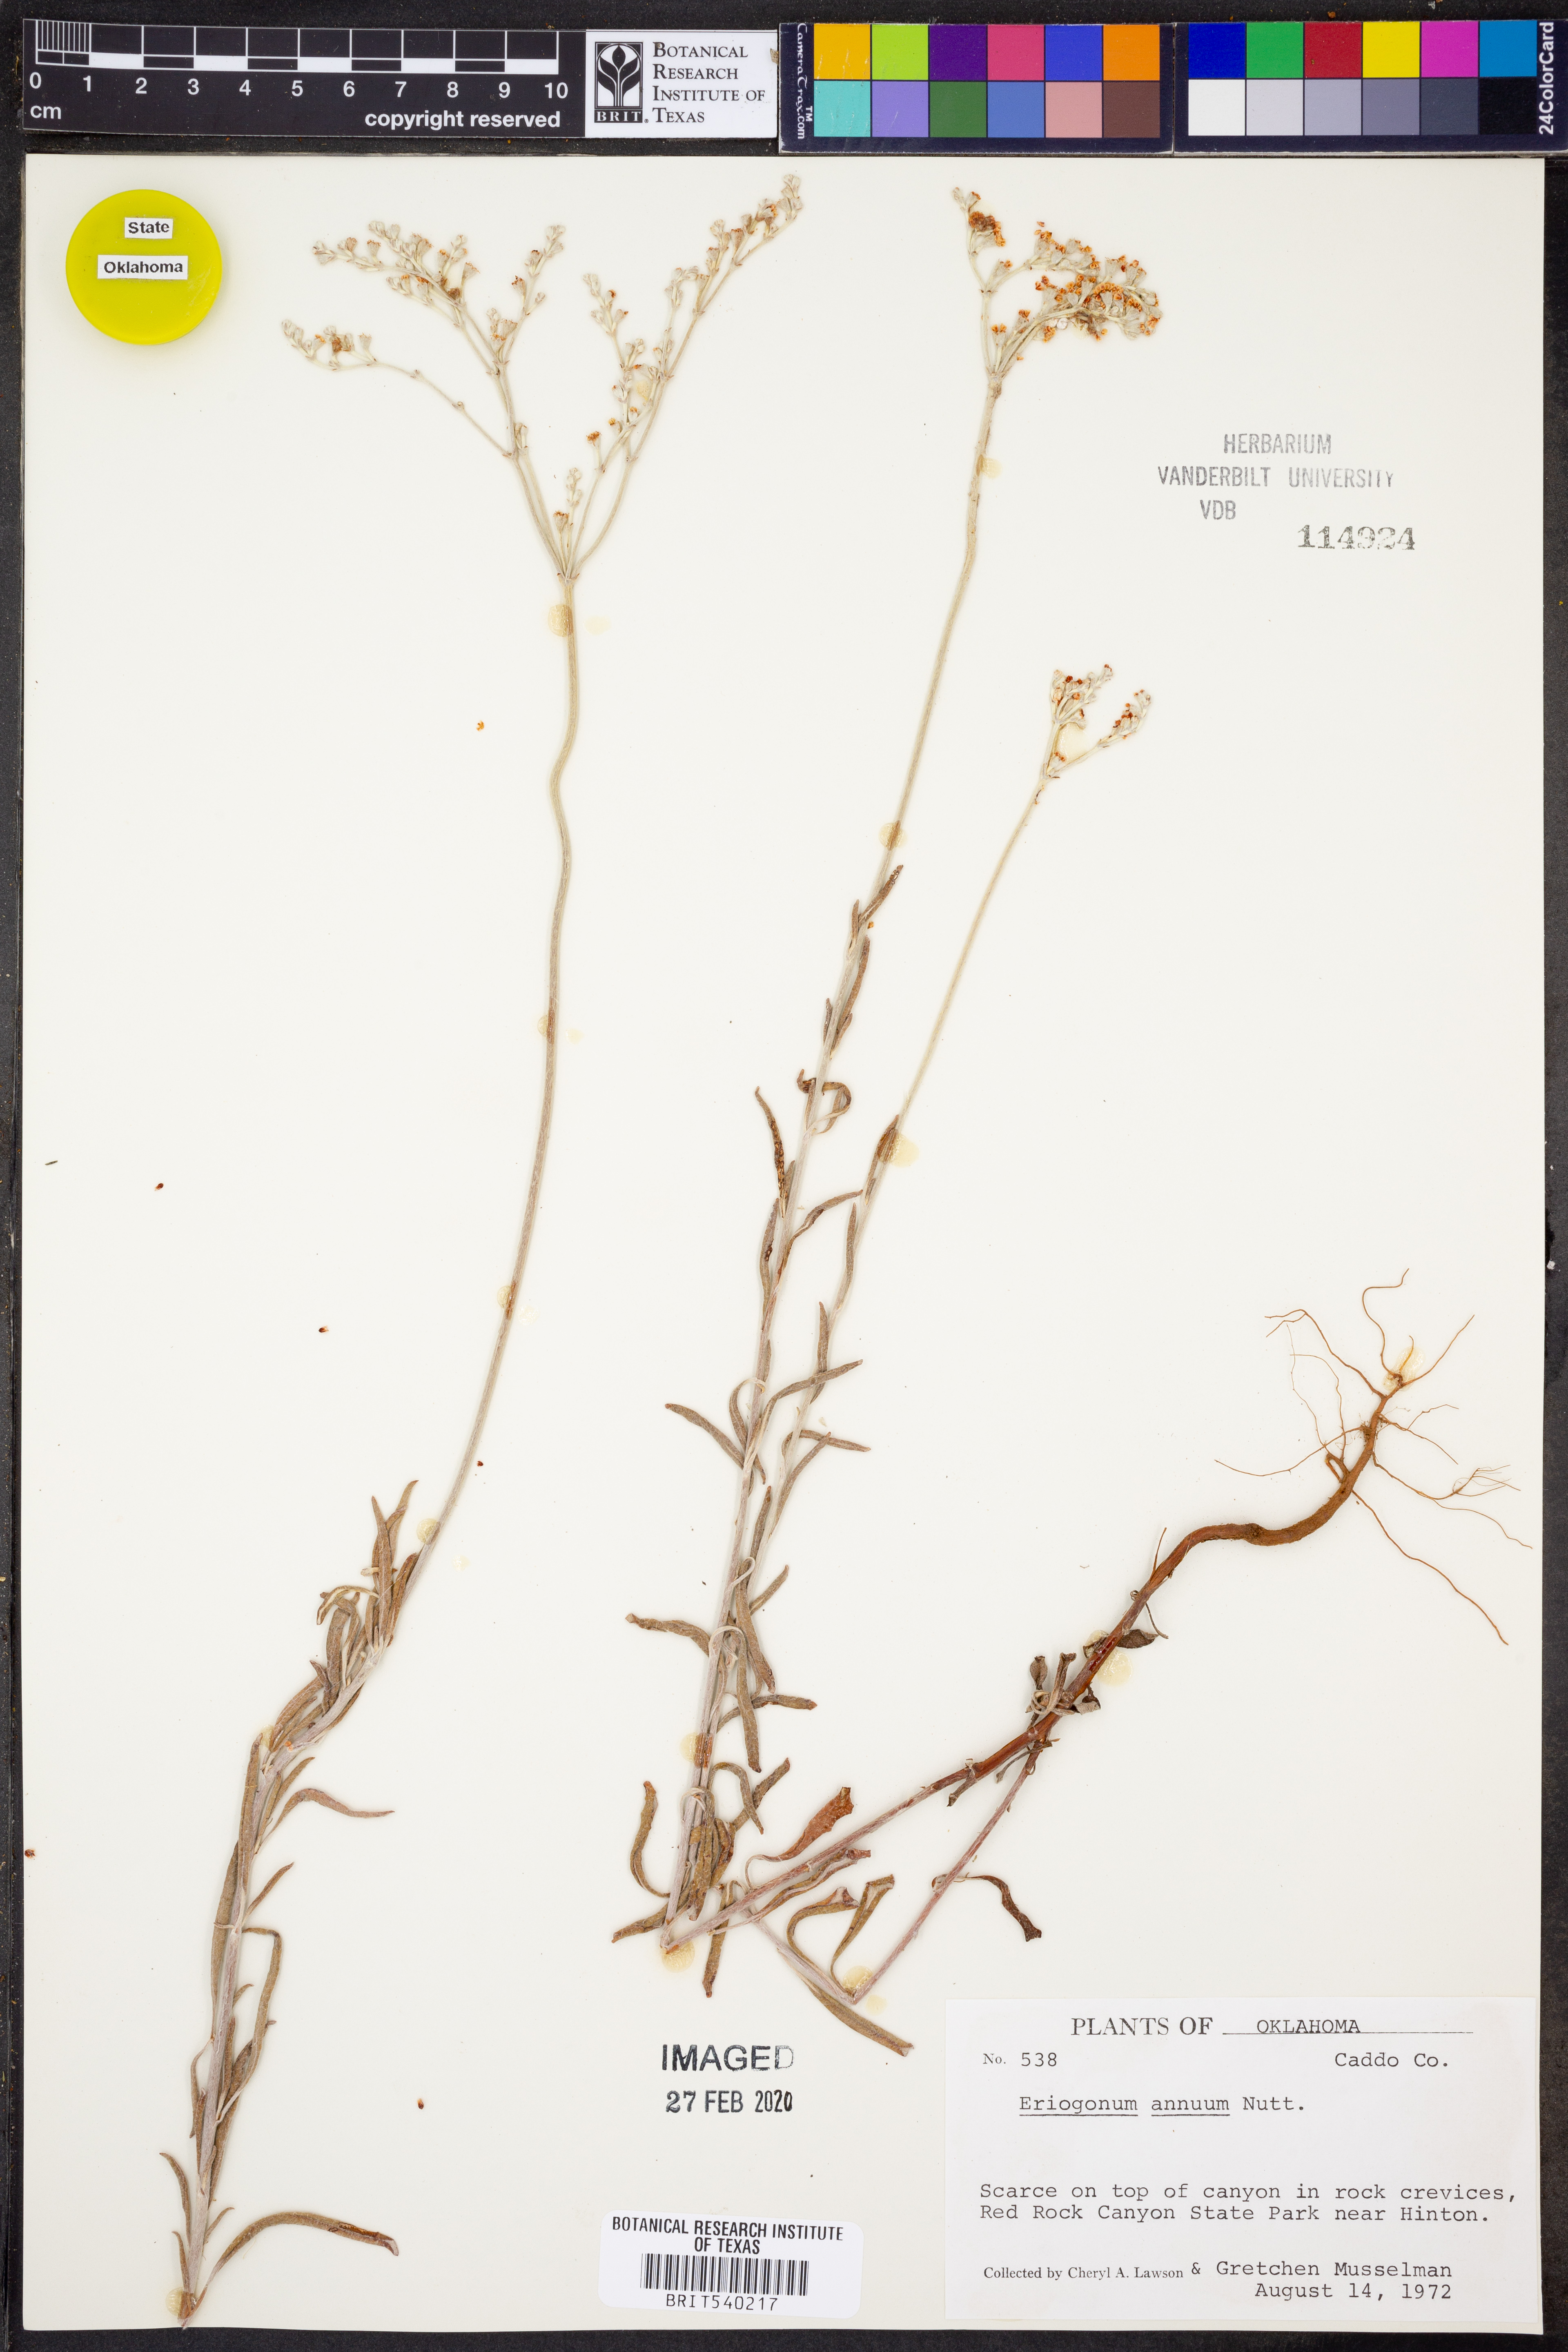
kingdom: Plantae
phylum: Tracheophyta
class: Magnoliopsida
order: Caryophyllales
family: Polygonaceae
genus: Eriogonum
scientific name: Eriogonum annuum
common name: Annual wild buckwheat
